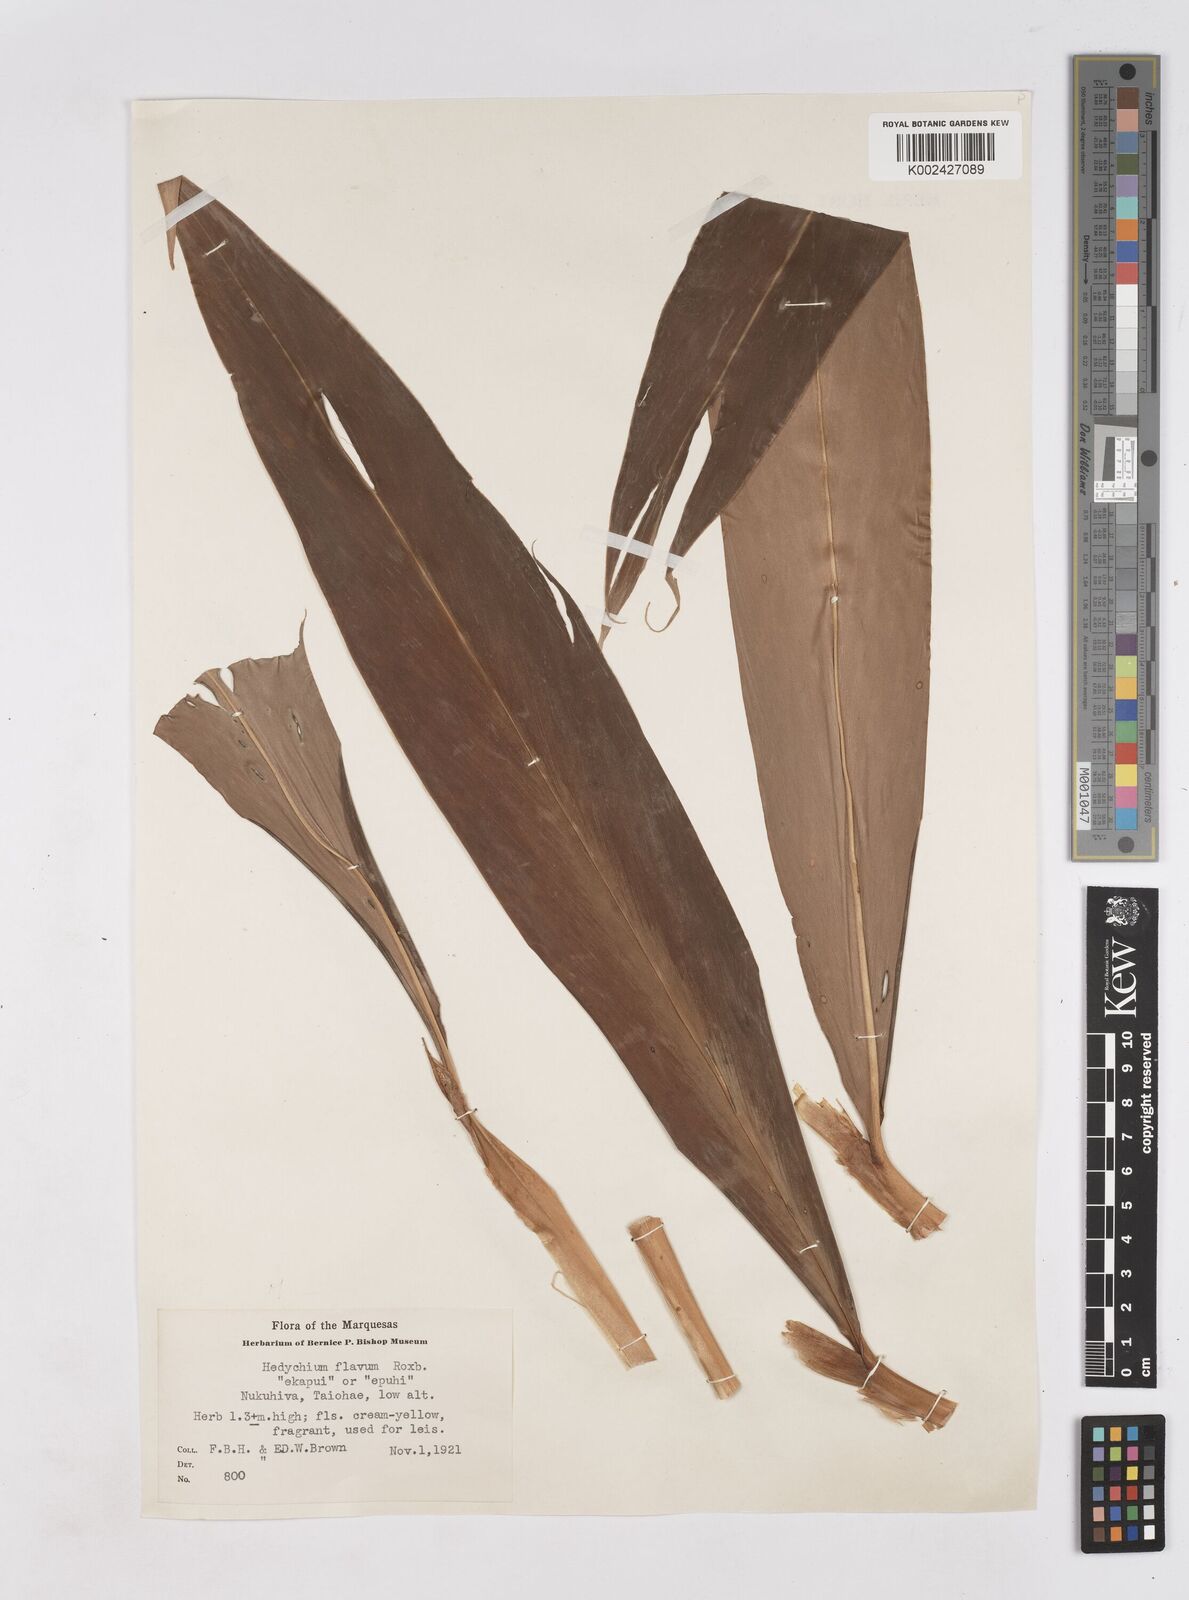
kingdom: Plantae
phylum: Tracheophyta
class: Liliopsida
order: Zingiberales
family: Zingiberaceae
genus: Hedychium
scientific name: Hedychium flavum
